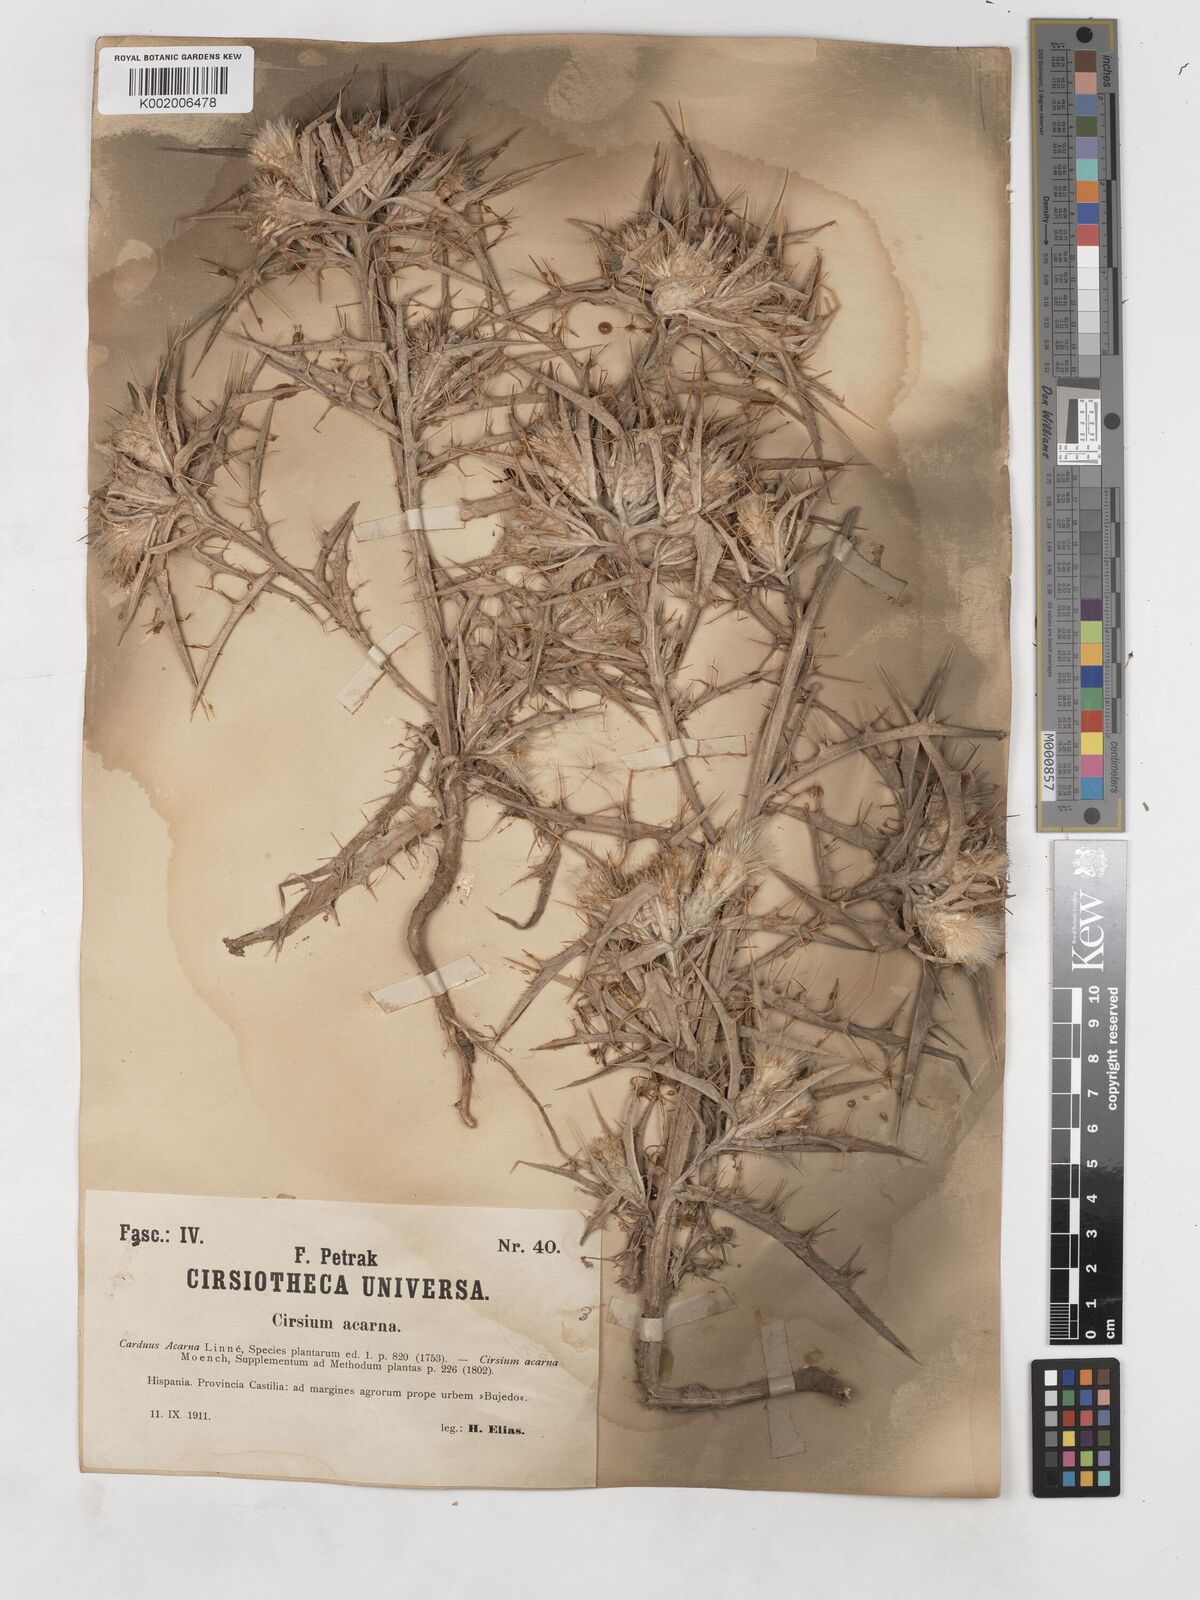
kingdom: Plantae
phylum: Tracheophyta
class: Magnoliopsida
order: Asterales
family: Asteraceae
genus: Picnomon
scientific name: Picnomon
